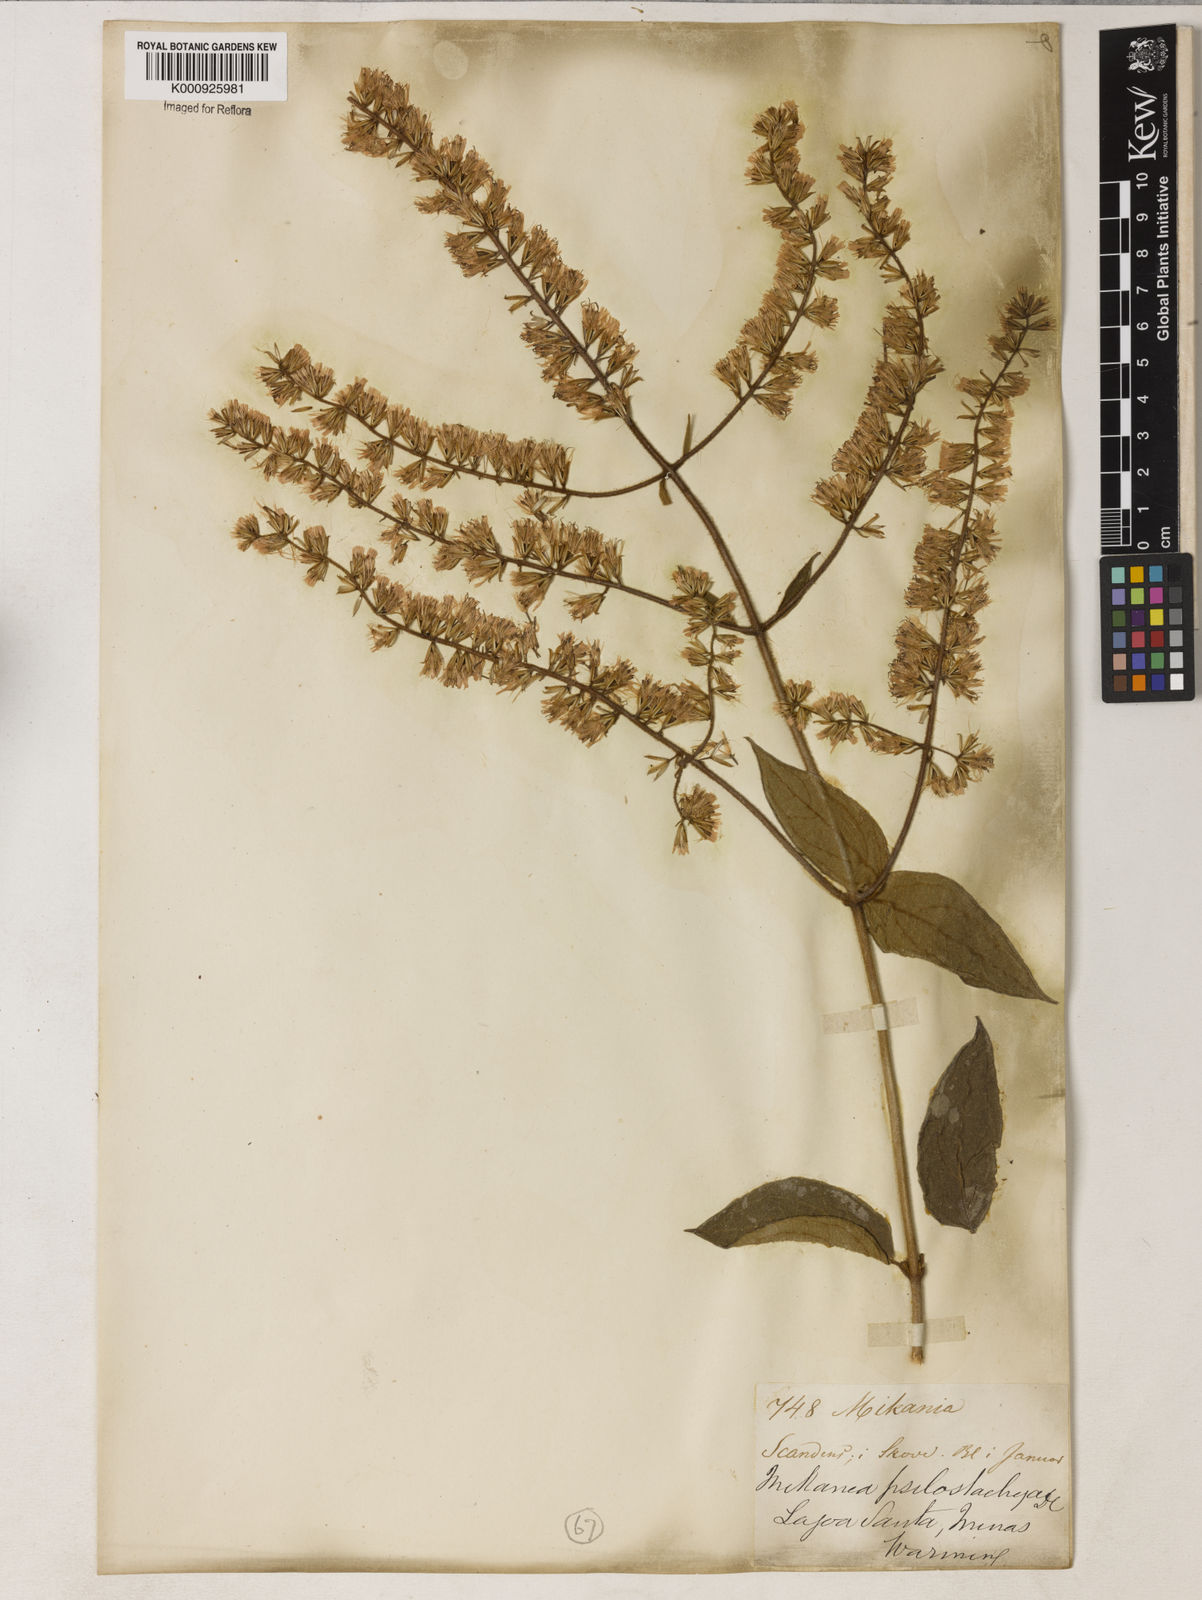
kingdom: Plantae
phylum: Tracheophyta
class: Magnoliopsida
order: Asterales
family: Asteraceae
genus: Mikania
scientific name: Mikania psilostachya
